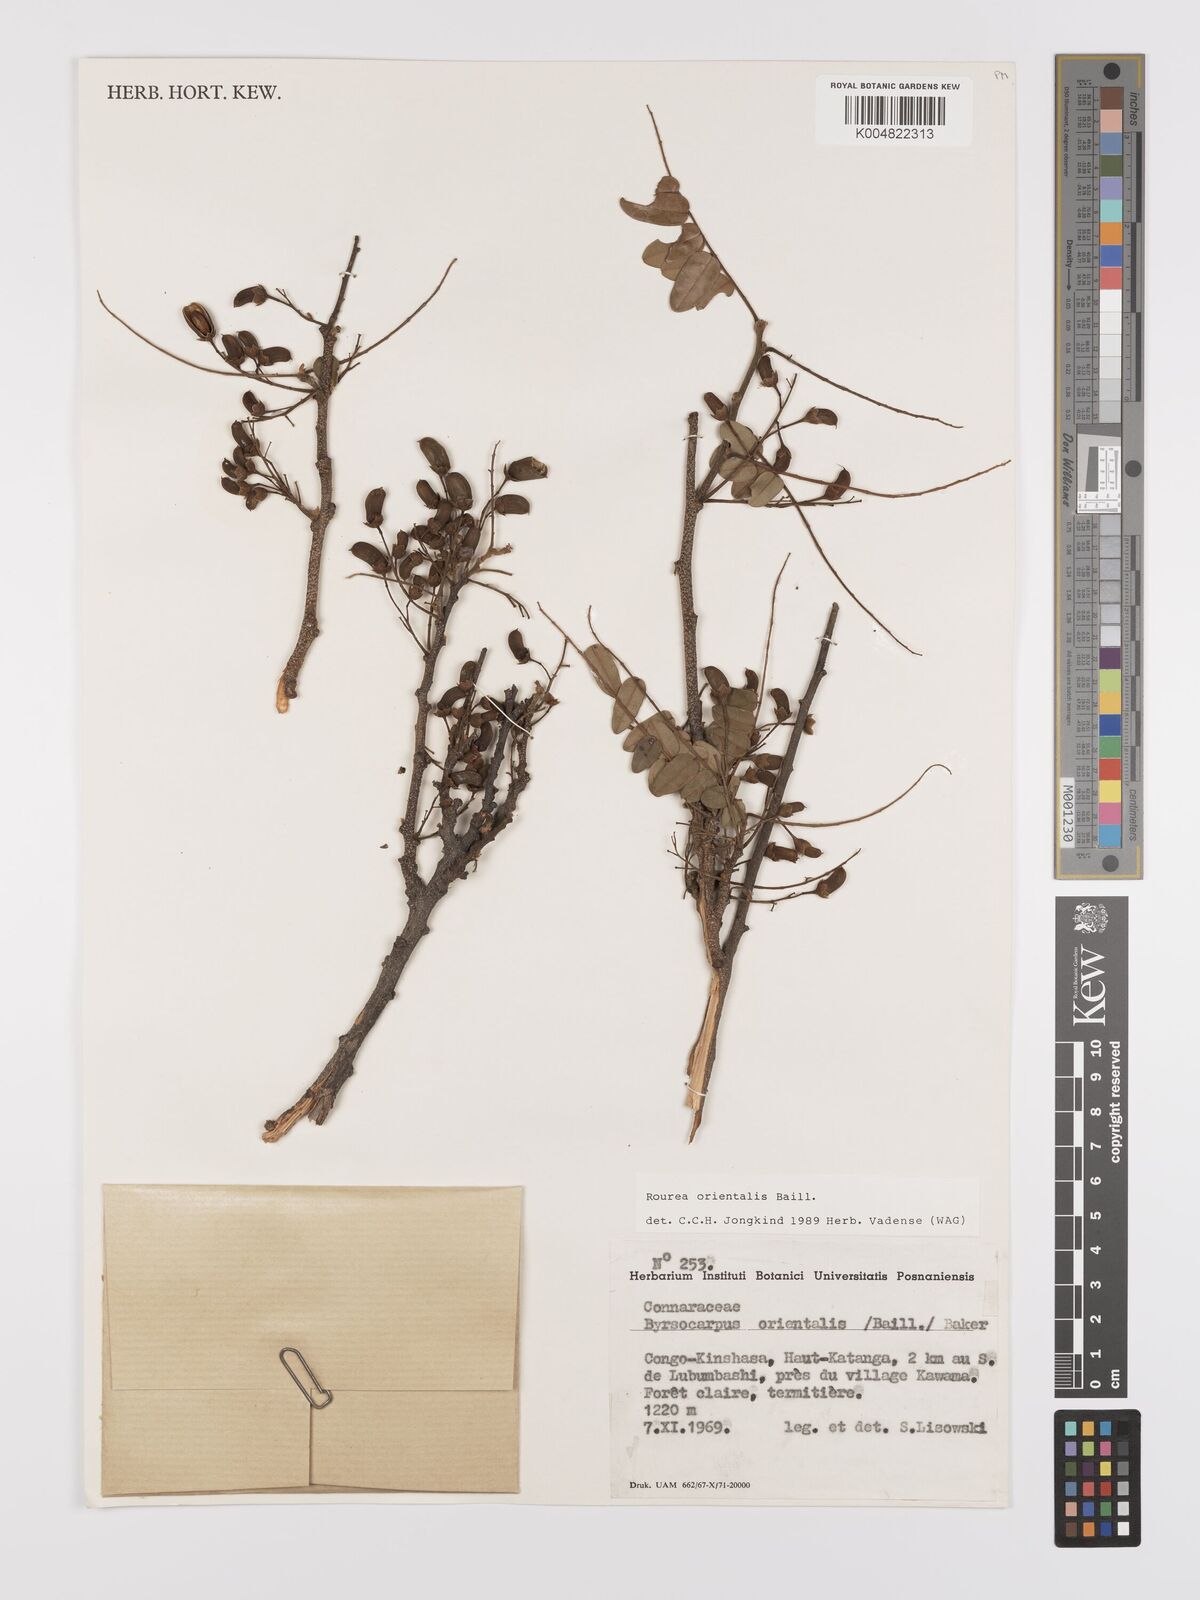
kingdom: Plantae
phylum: Tracheophyta
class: Magnoliopsida
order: Oxalidales
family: Connaraceae
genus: Rourea
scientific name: Rourea orientalis
